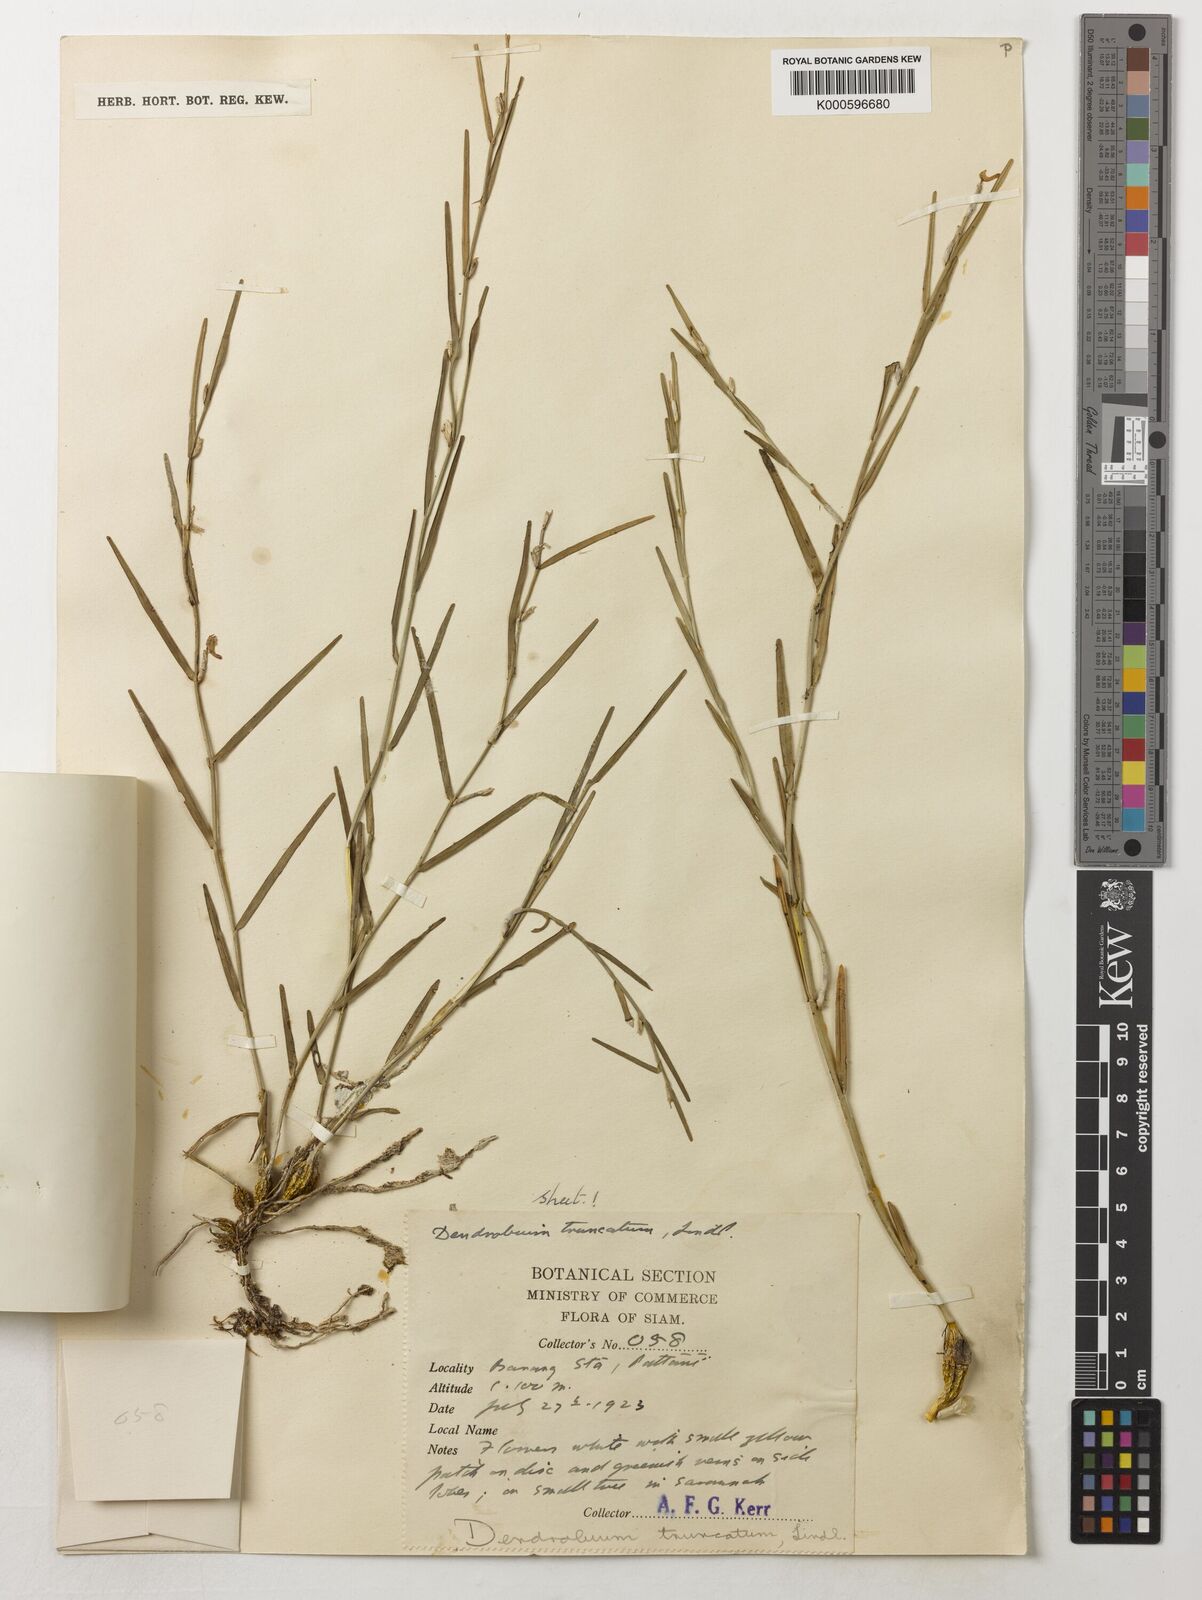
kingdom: Plantae
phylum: Tracheophyta
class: Liliopsida
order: Asparagales
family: Orchidaceae
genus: Dendrobium
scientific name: Dendrobium truncatum
